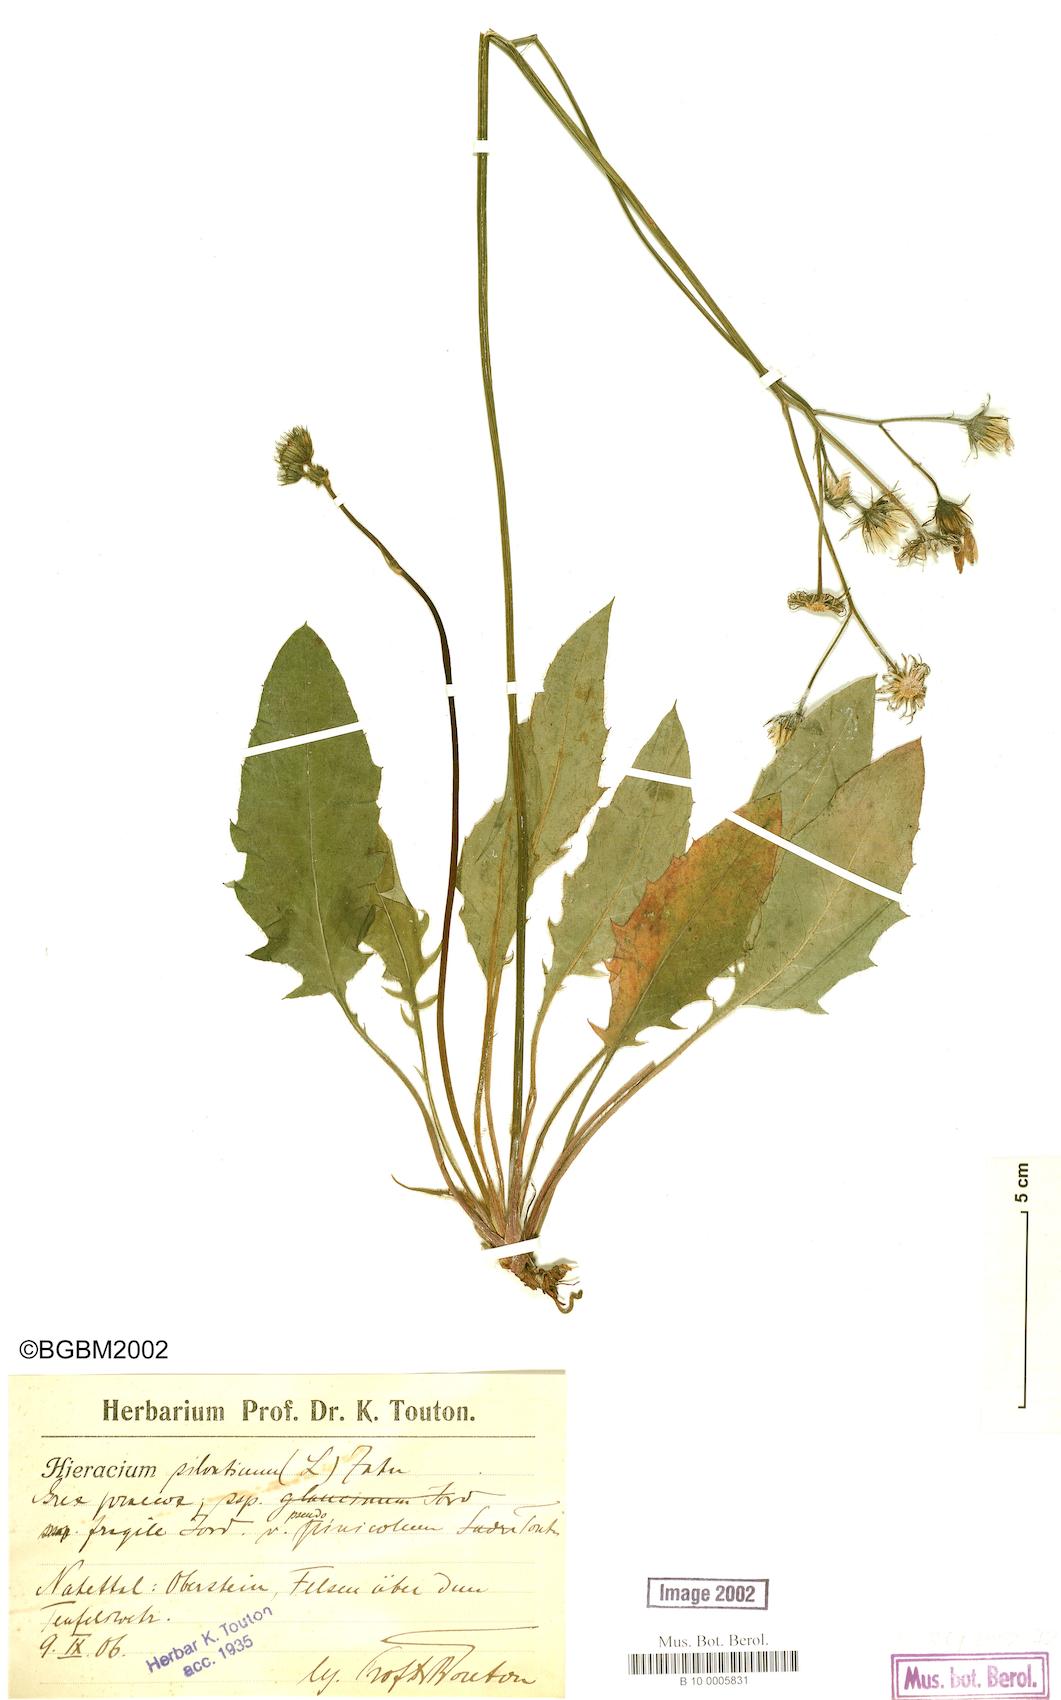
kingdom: Plantae
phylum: Tracheophyta
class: Magnoliopsida
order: Asterales
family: Asteraceae
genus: Hieracium
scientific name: Hieracium praecox
